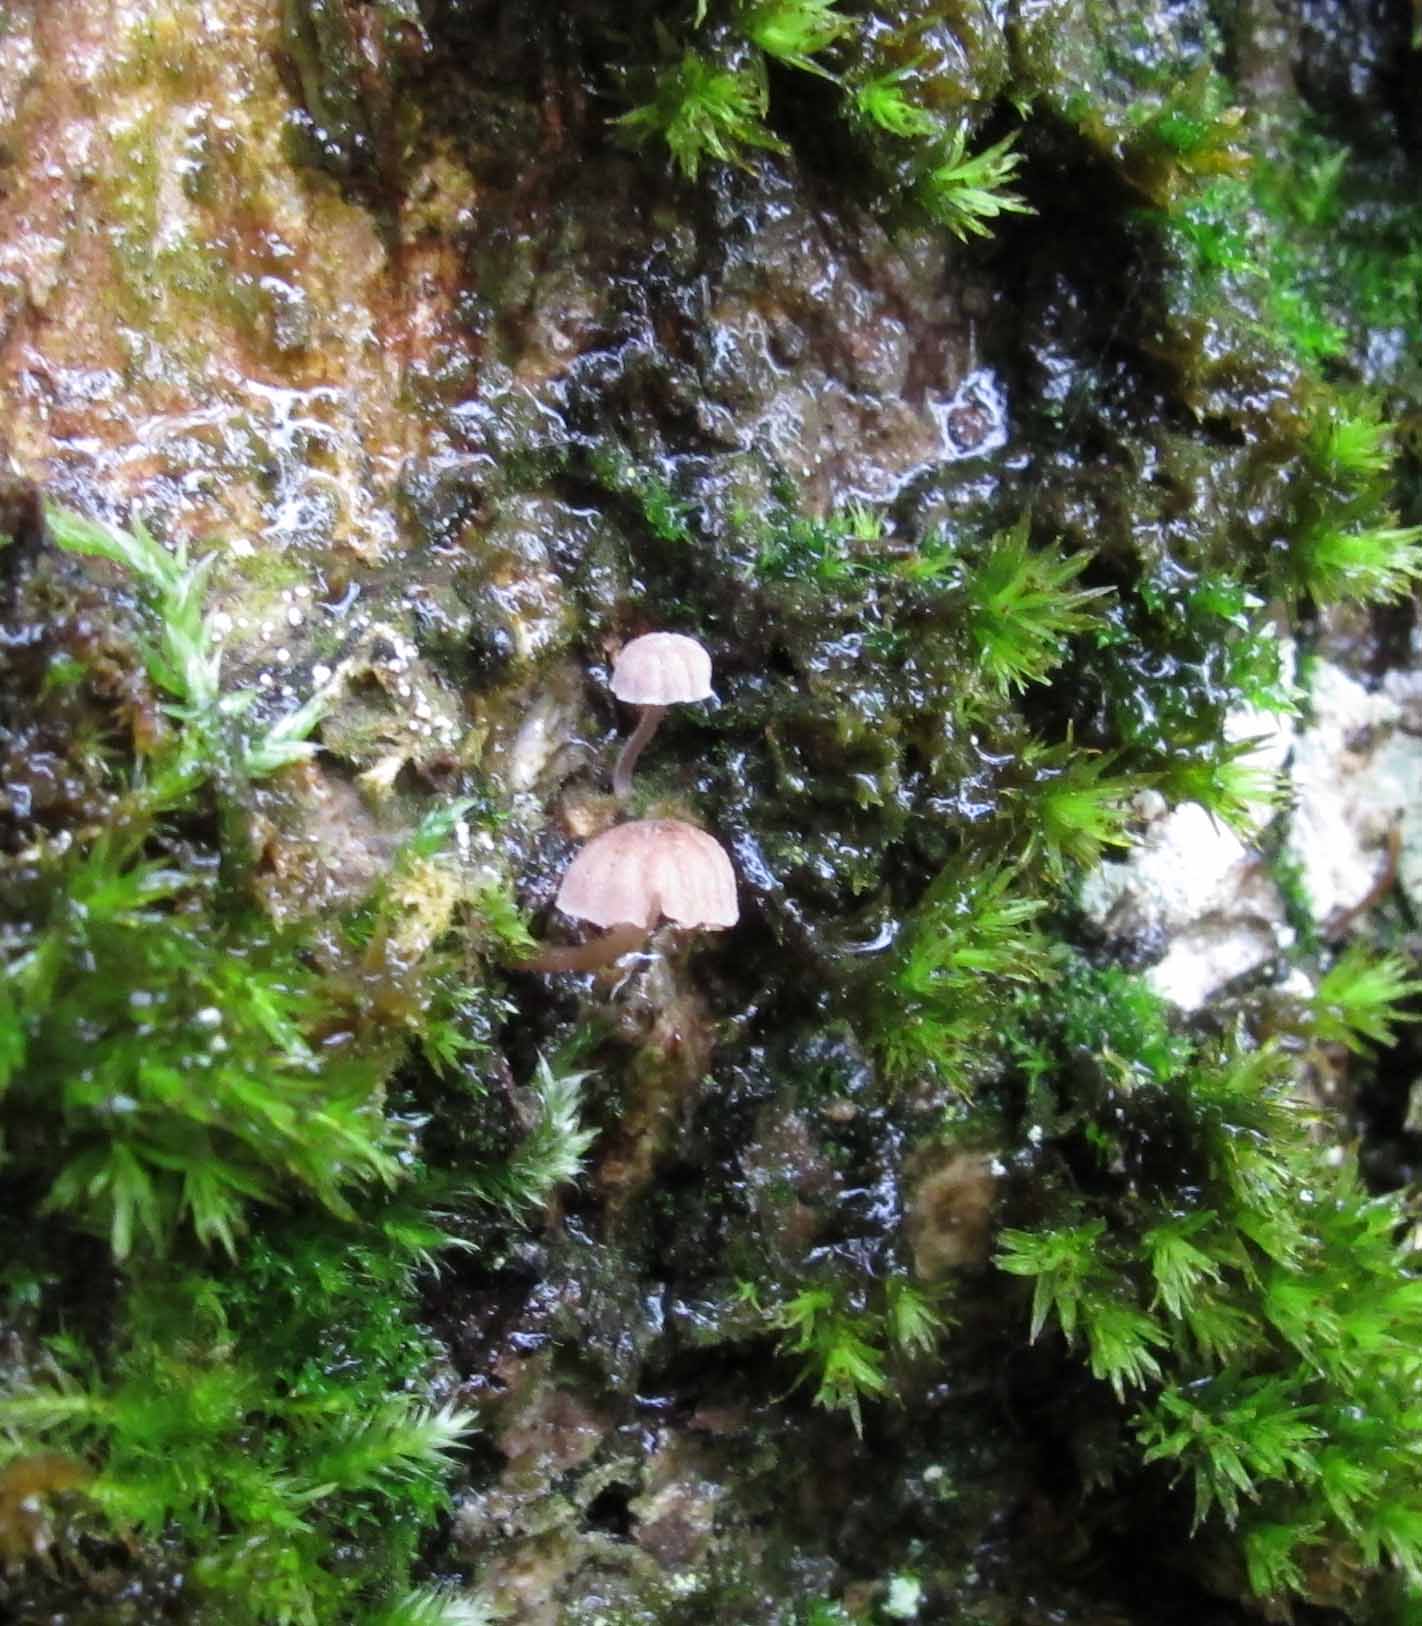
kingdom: Fungi
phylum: Basidiomycota
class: Agaricomycetes
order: Agaricales
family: Mycenaceae
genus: Mycena
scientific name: Mycena meliigena
